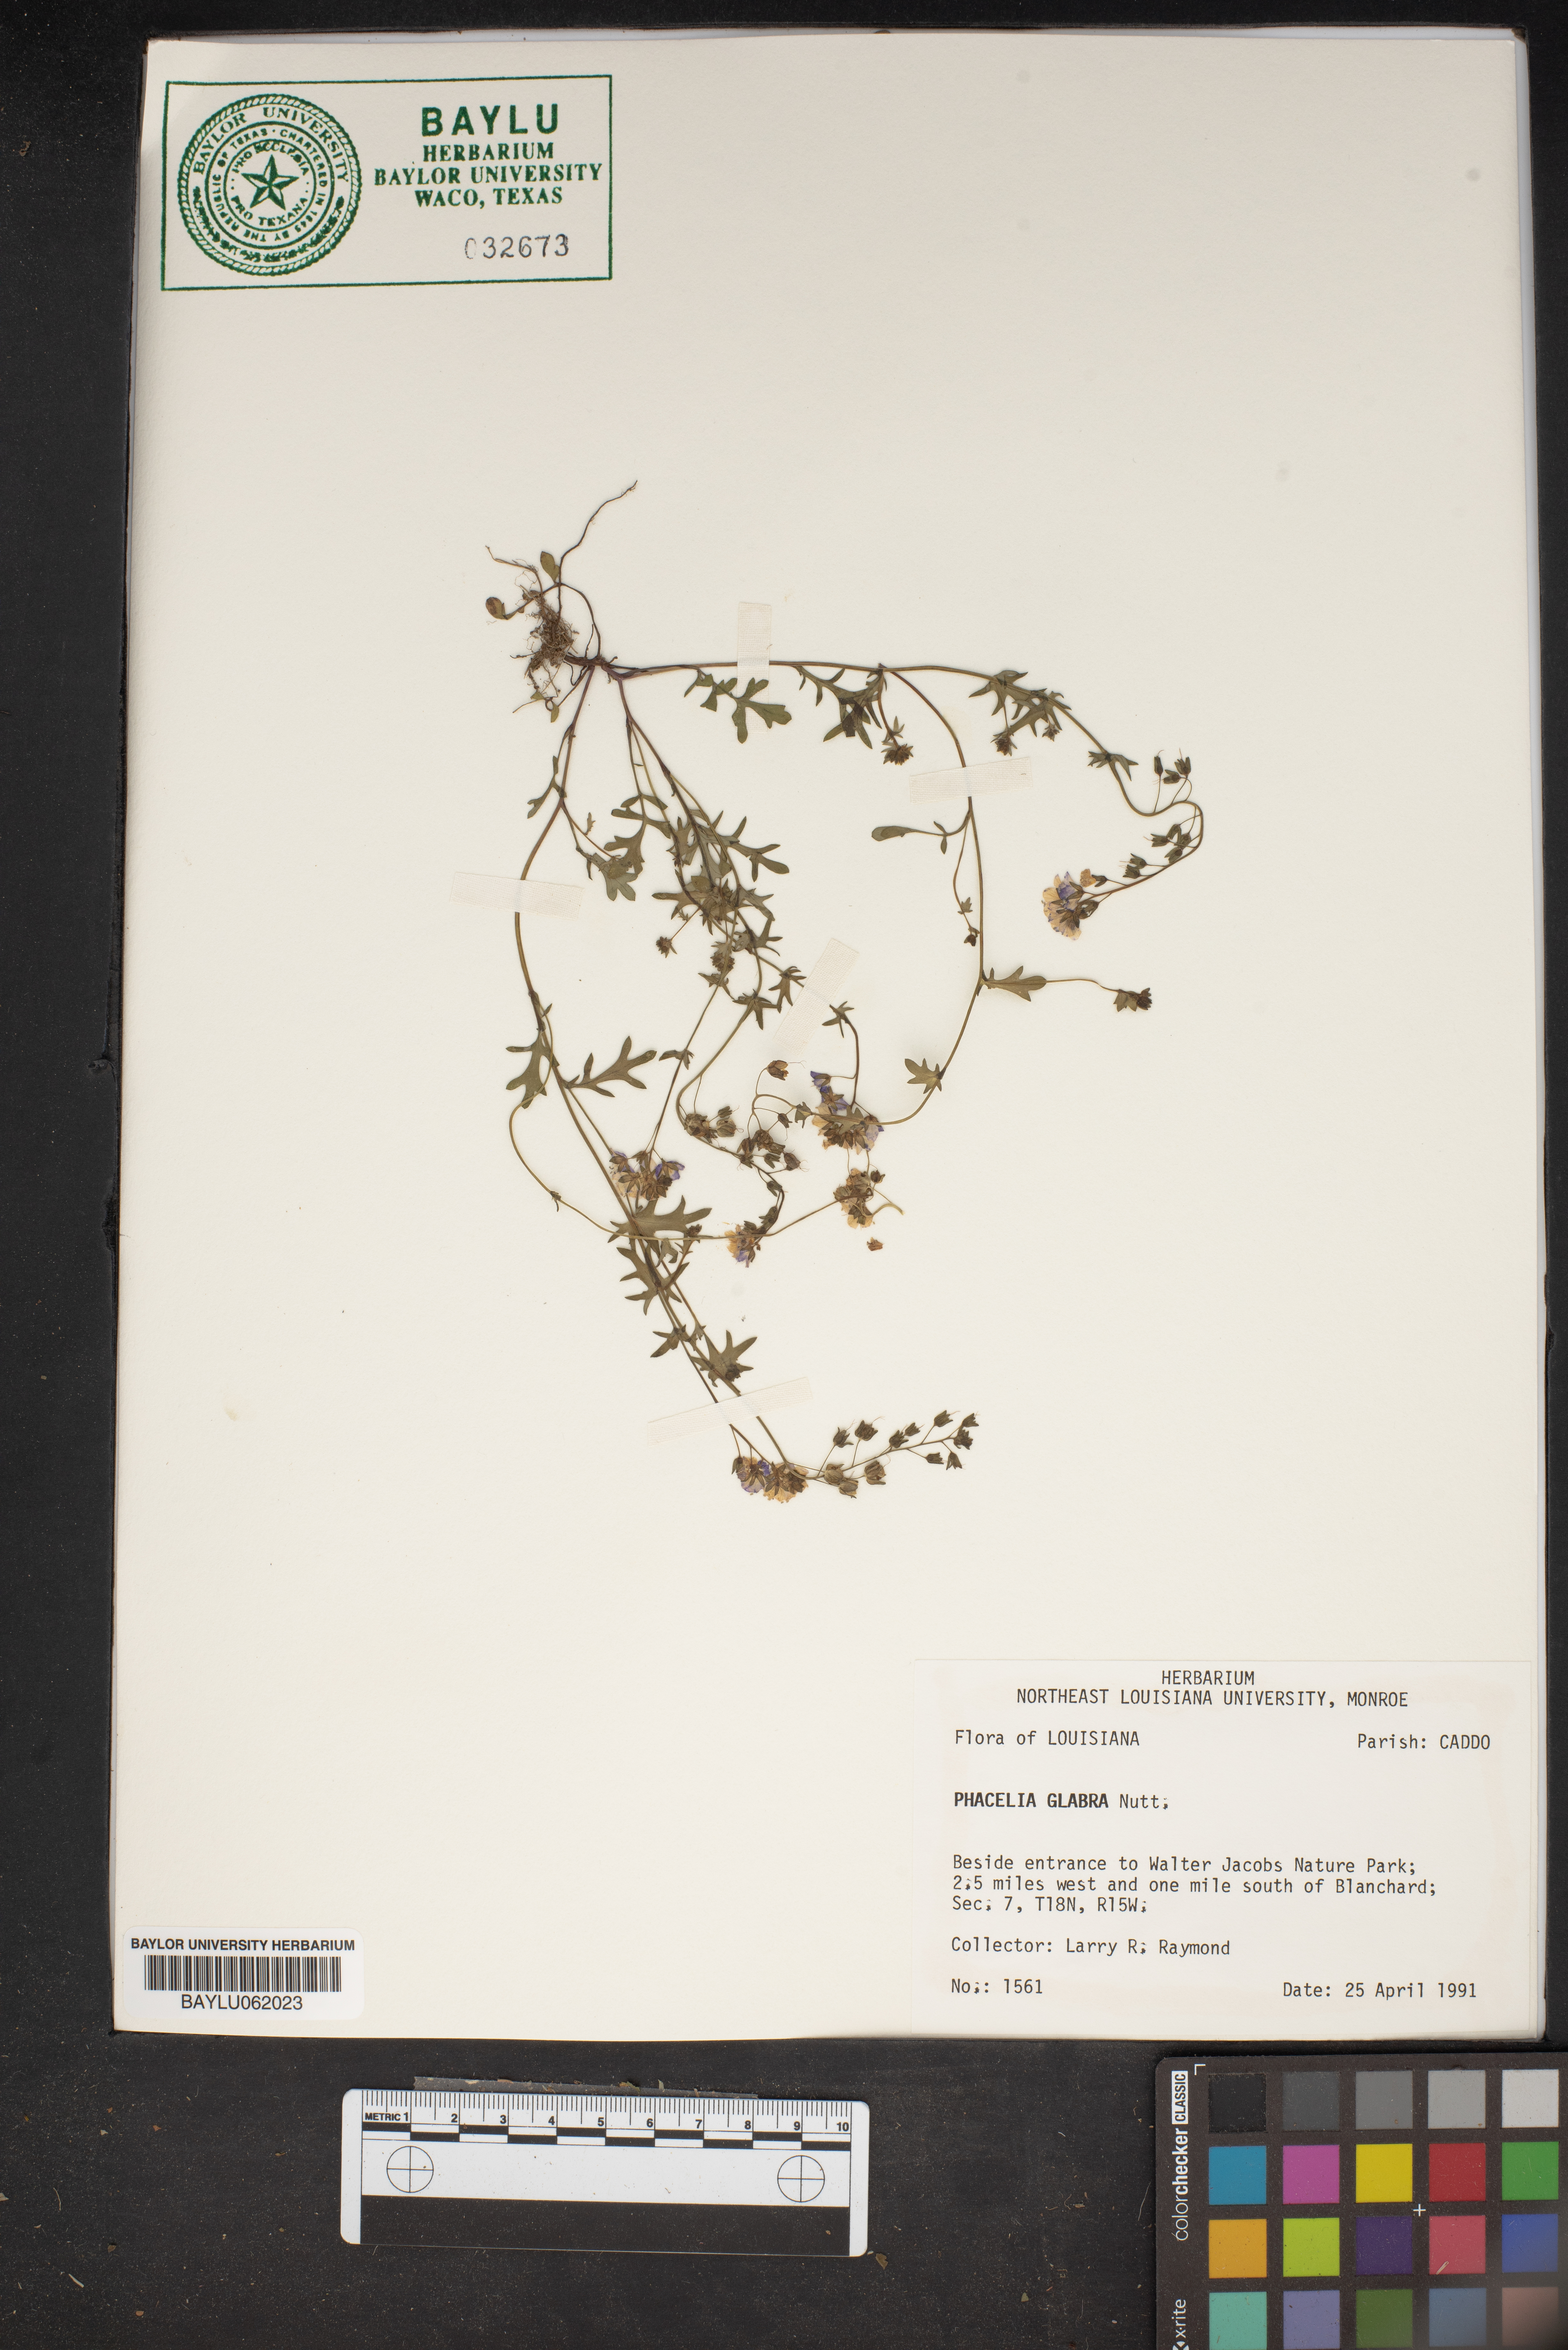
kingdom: Plantae
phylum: Tracheophyta
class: Magnoliopsida
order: Boraginales
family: Hydrophyllaceae
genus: Phacelia
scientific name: Phacelia glabra
